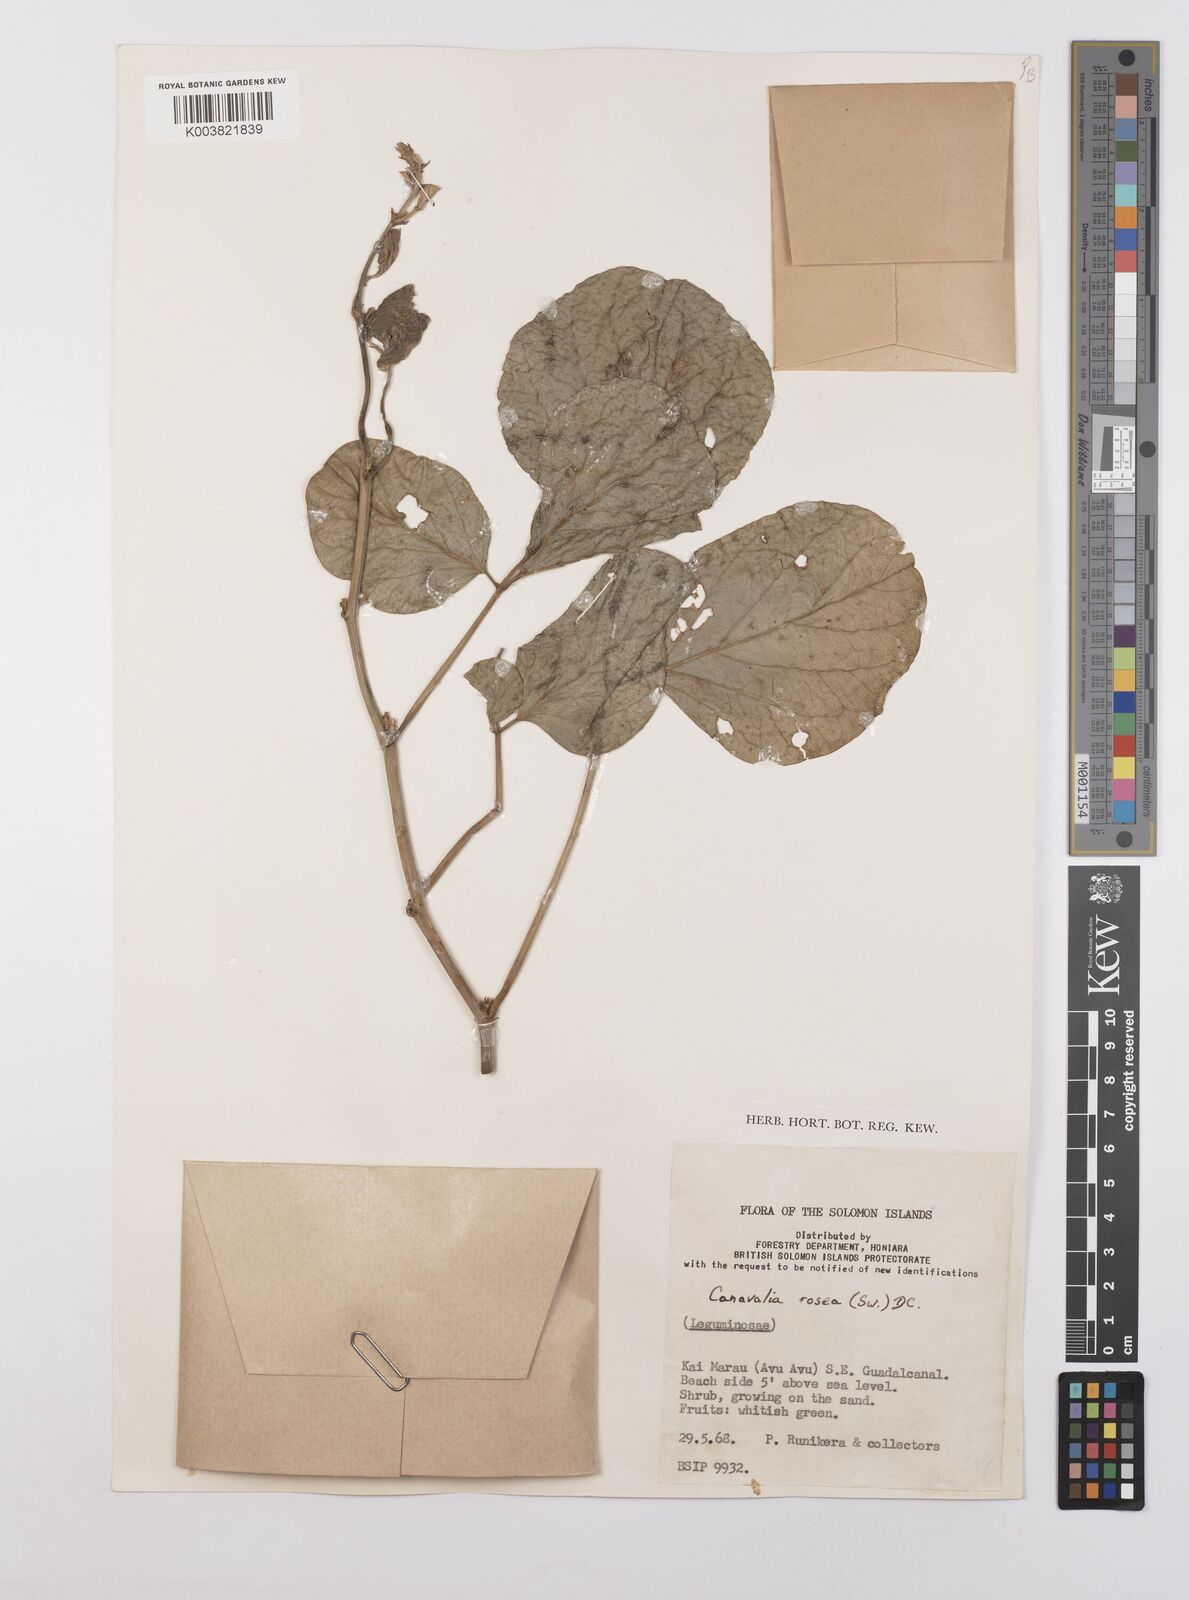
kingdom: Plantae
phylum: Tracheophyta
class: Magnoliopsida
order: Fabales
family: Fabaceae
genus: Canavalia
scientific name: Canavalia rosea
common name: Beach-bean
